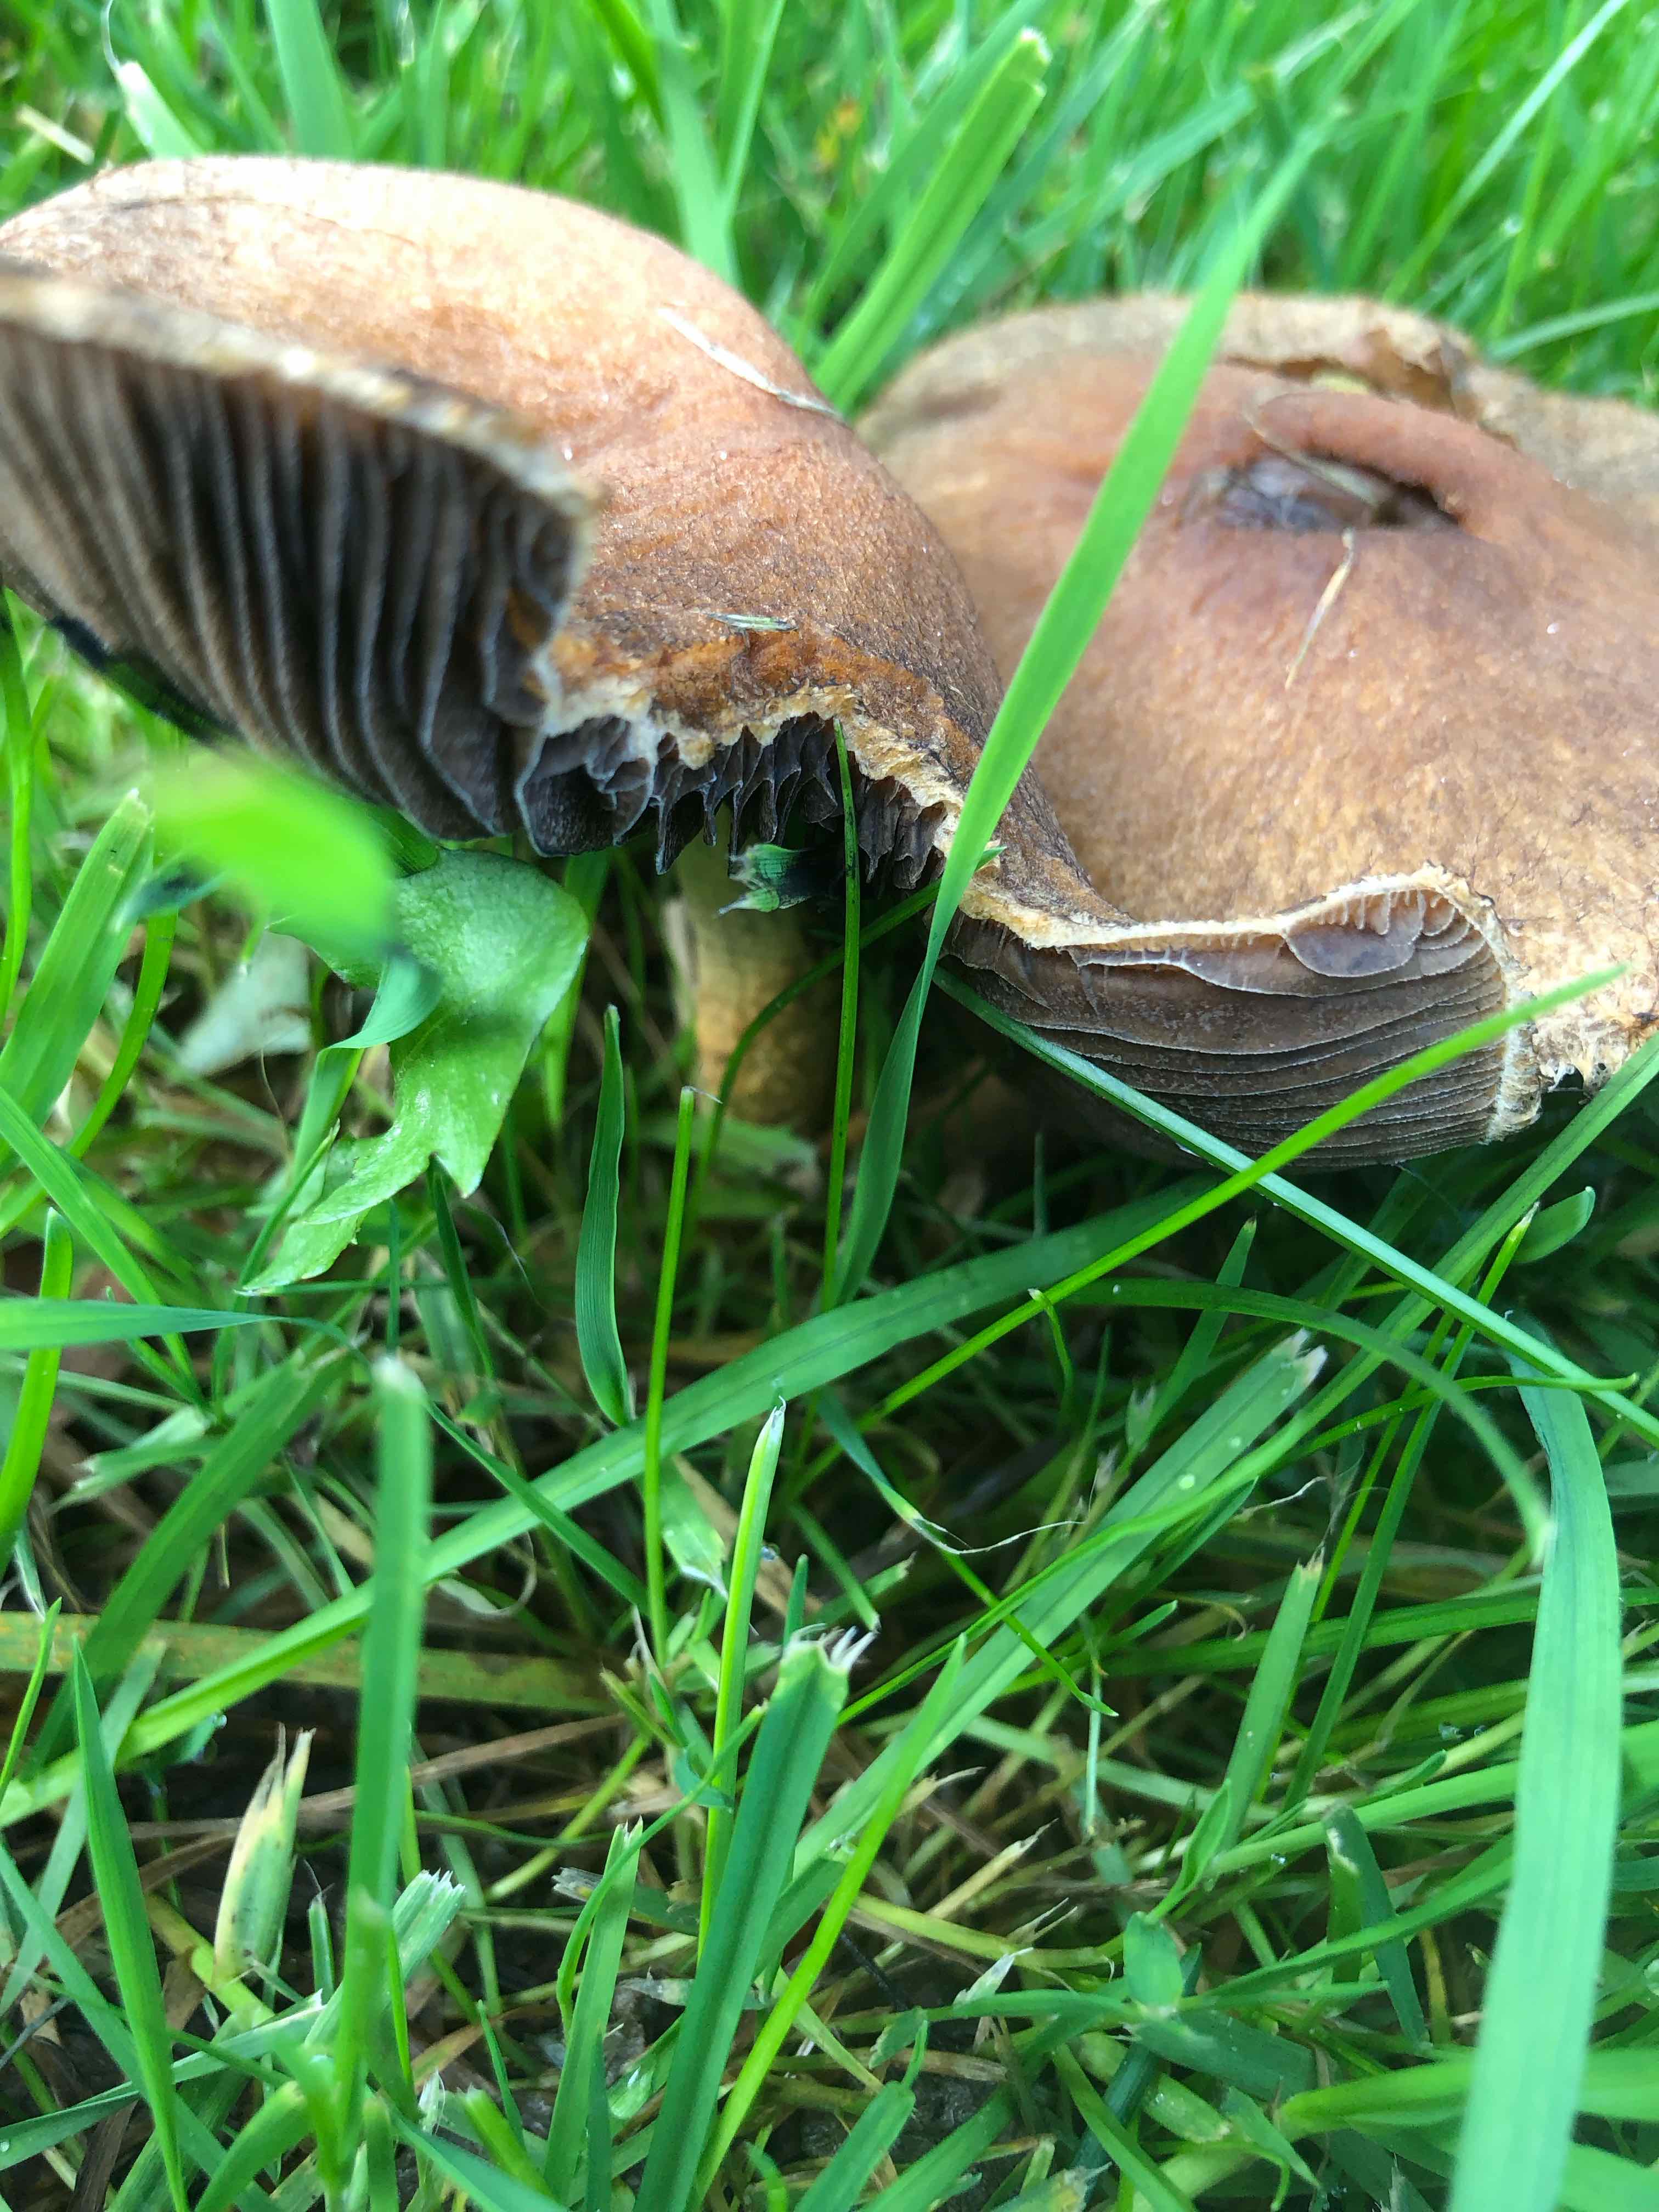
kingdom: Fungi
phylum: Basidiomycota
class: Agaricomycetes
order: Agaricales
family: Psathyrellaceae
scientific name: Psathyrellaceae
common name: mørkhatfamilien
